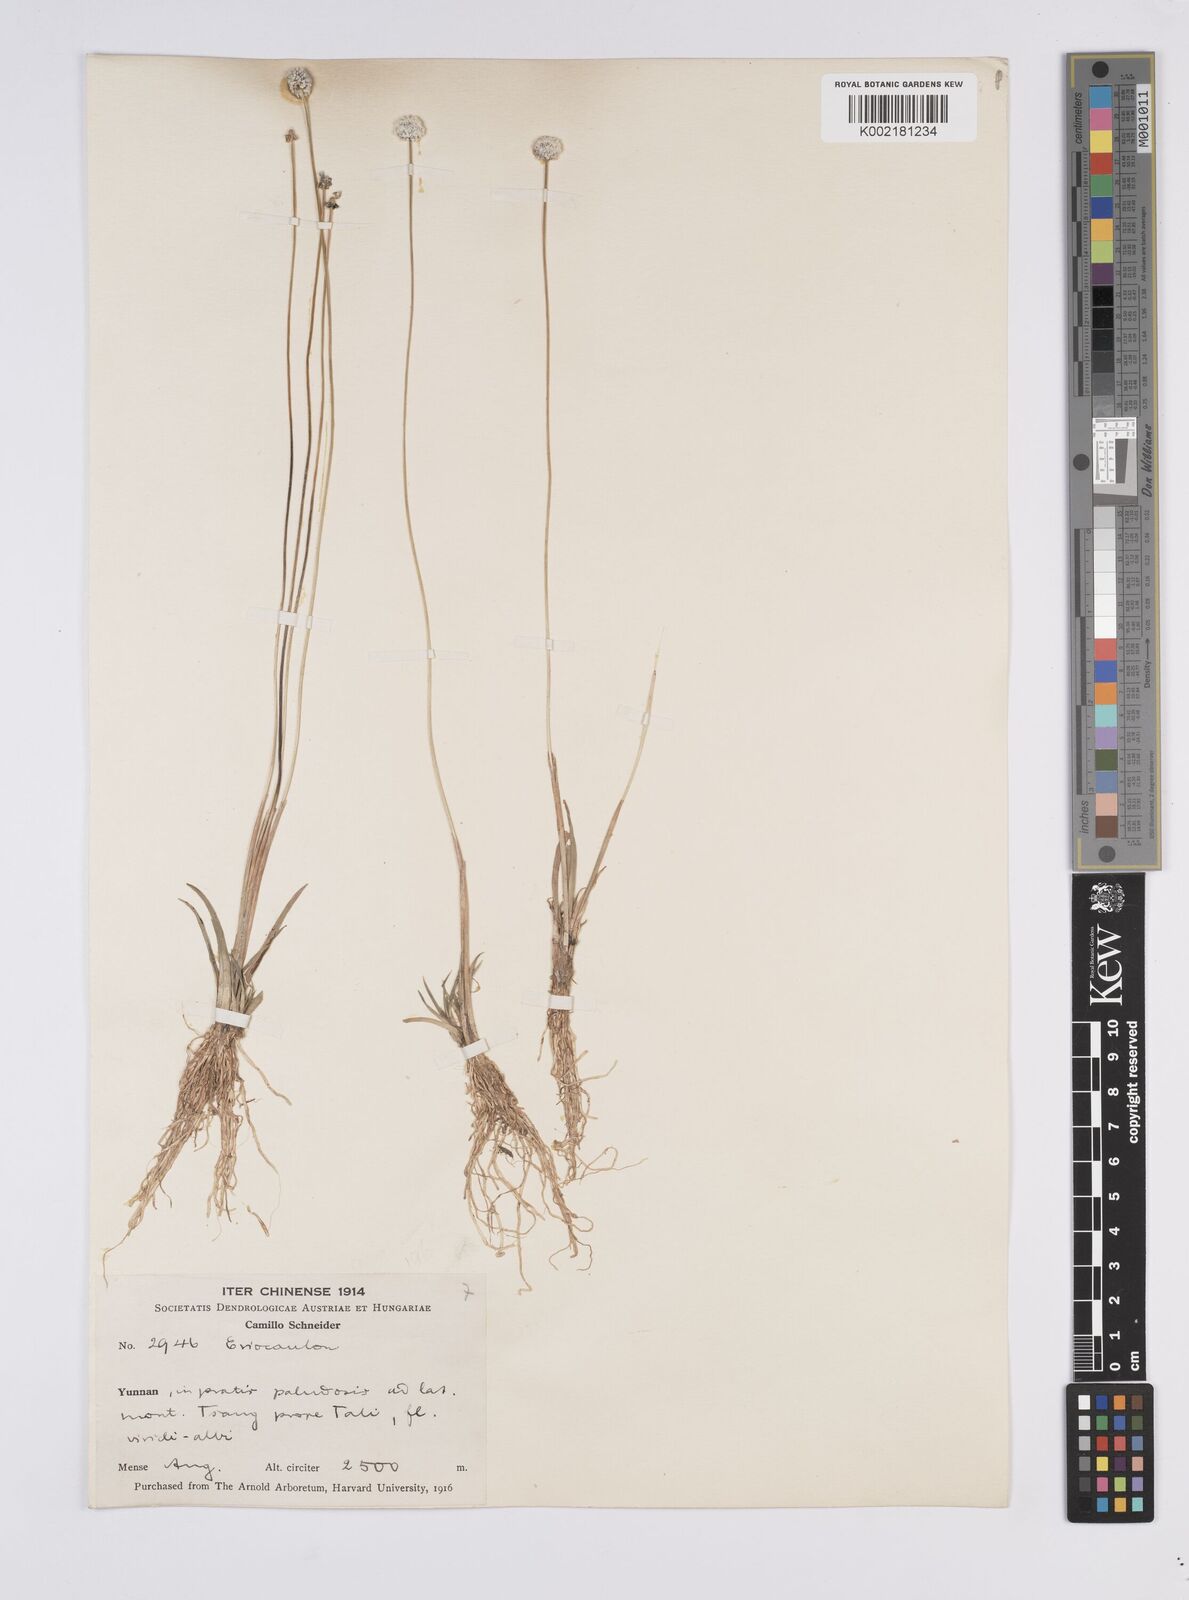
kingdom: Plantae
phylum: Tracheophyta
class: Liliopsida
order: Poales
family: Eriocaulaceae
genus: Eriocaulon
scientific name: Eriocaulon
